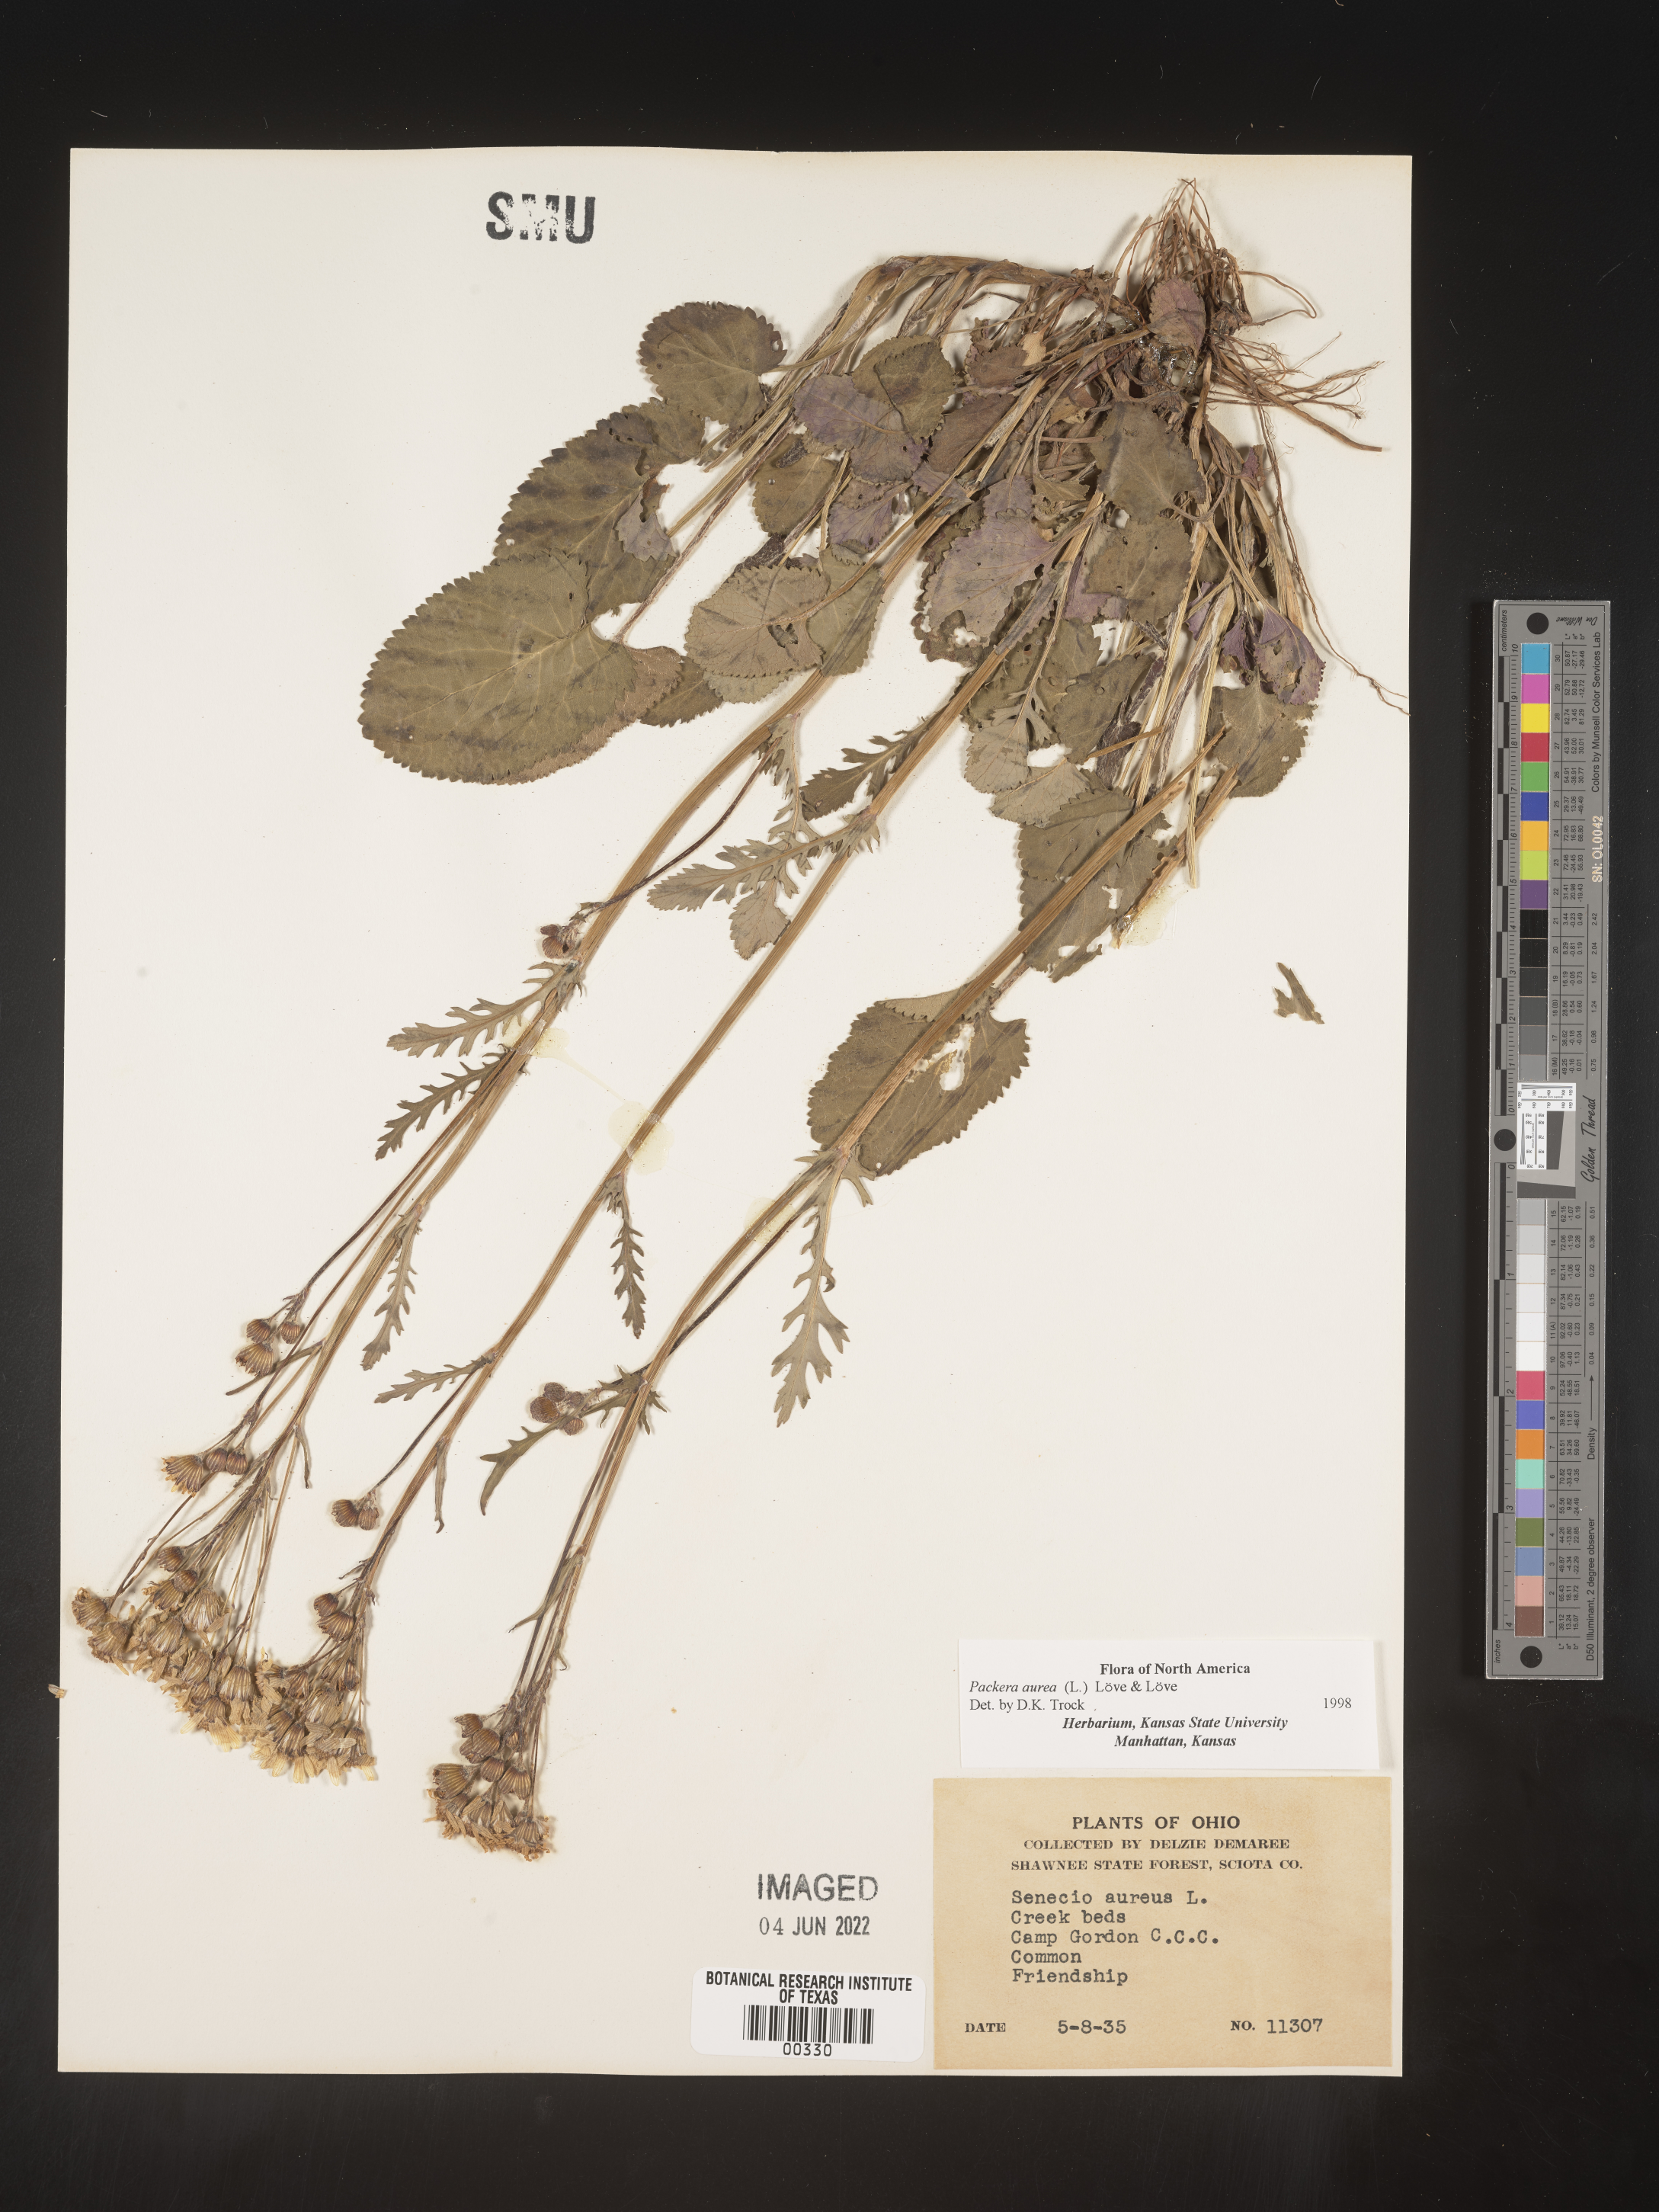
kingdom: Plantae
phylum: Tracheophyta
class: Magnoliopsida
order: Asterales
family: Asteraceae
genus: Packera
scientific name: Packera aurea
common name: Golden groundsel
